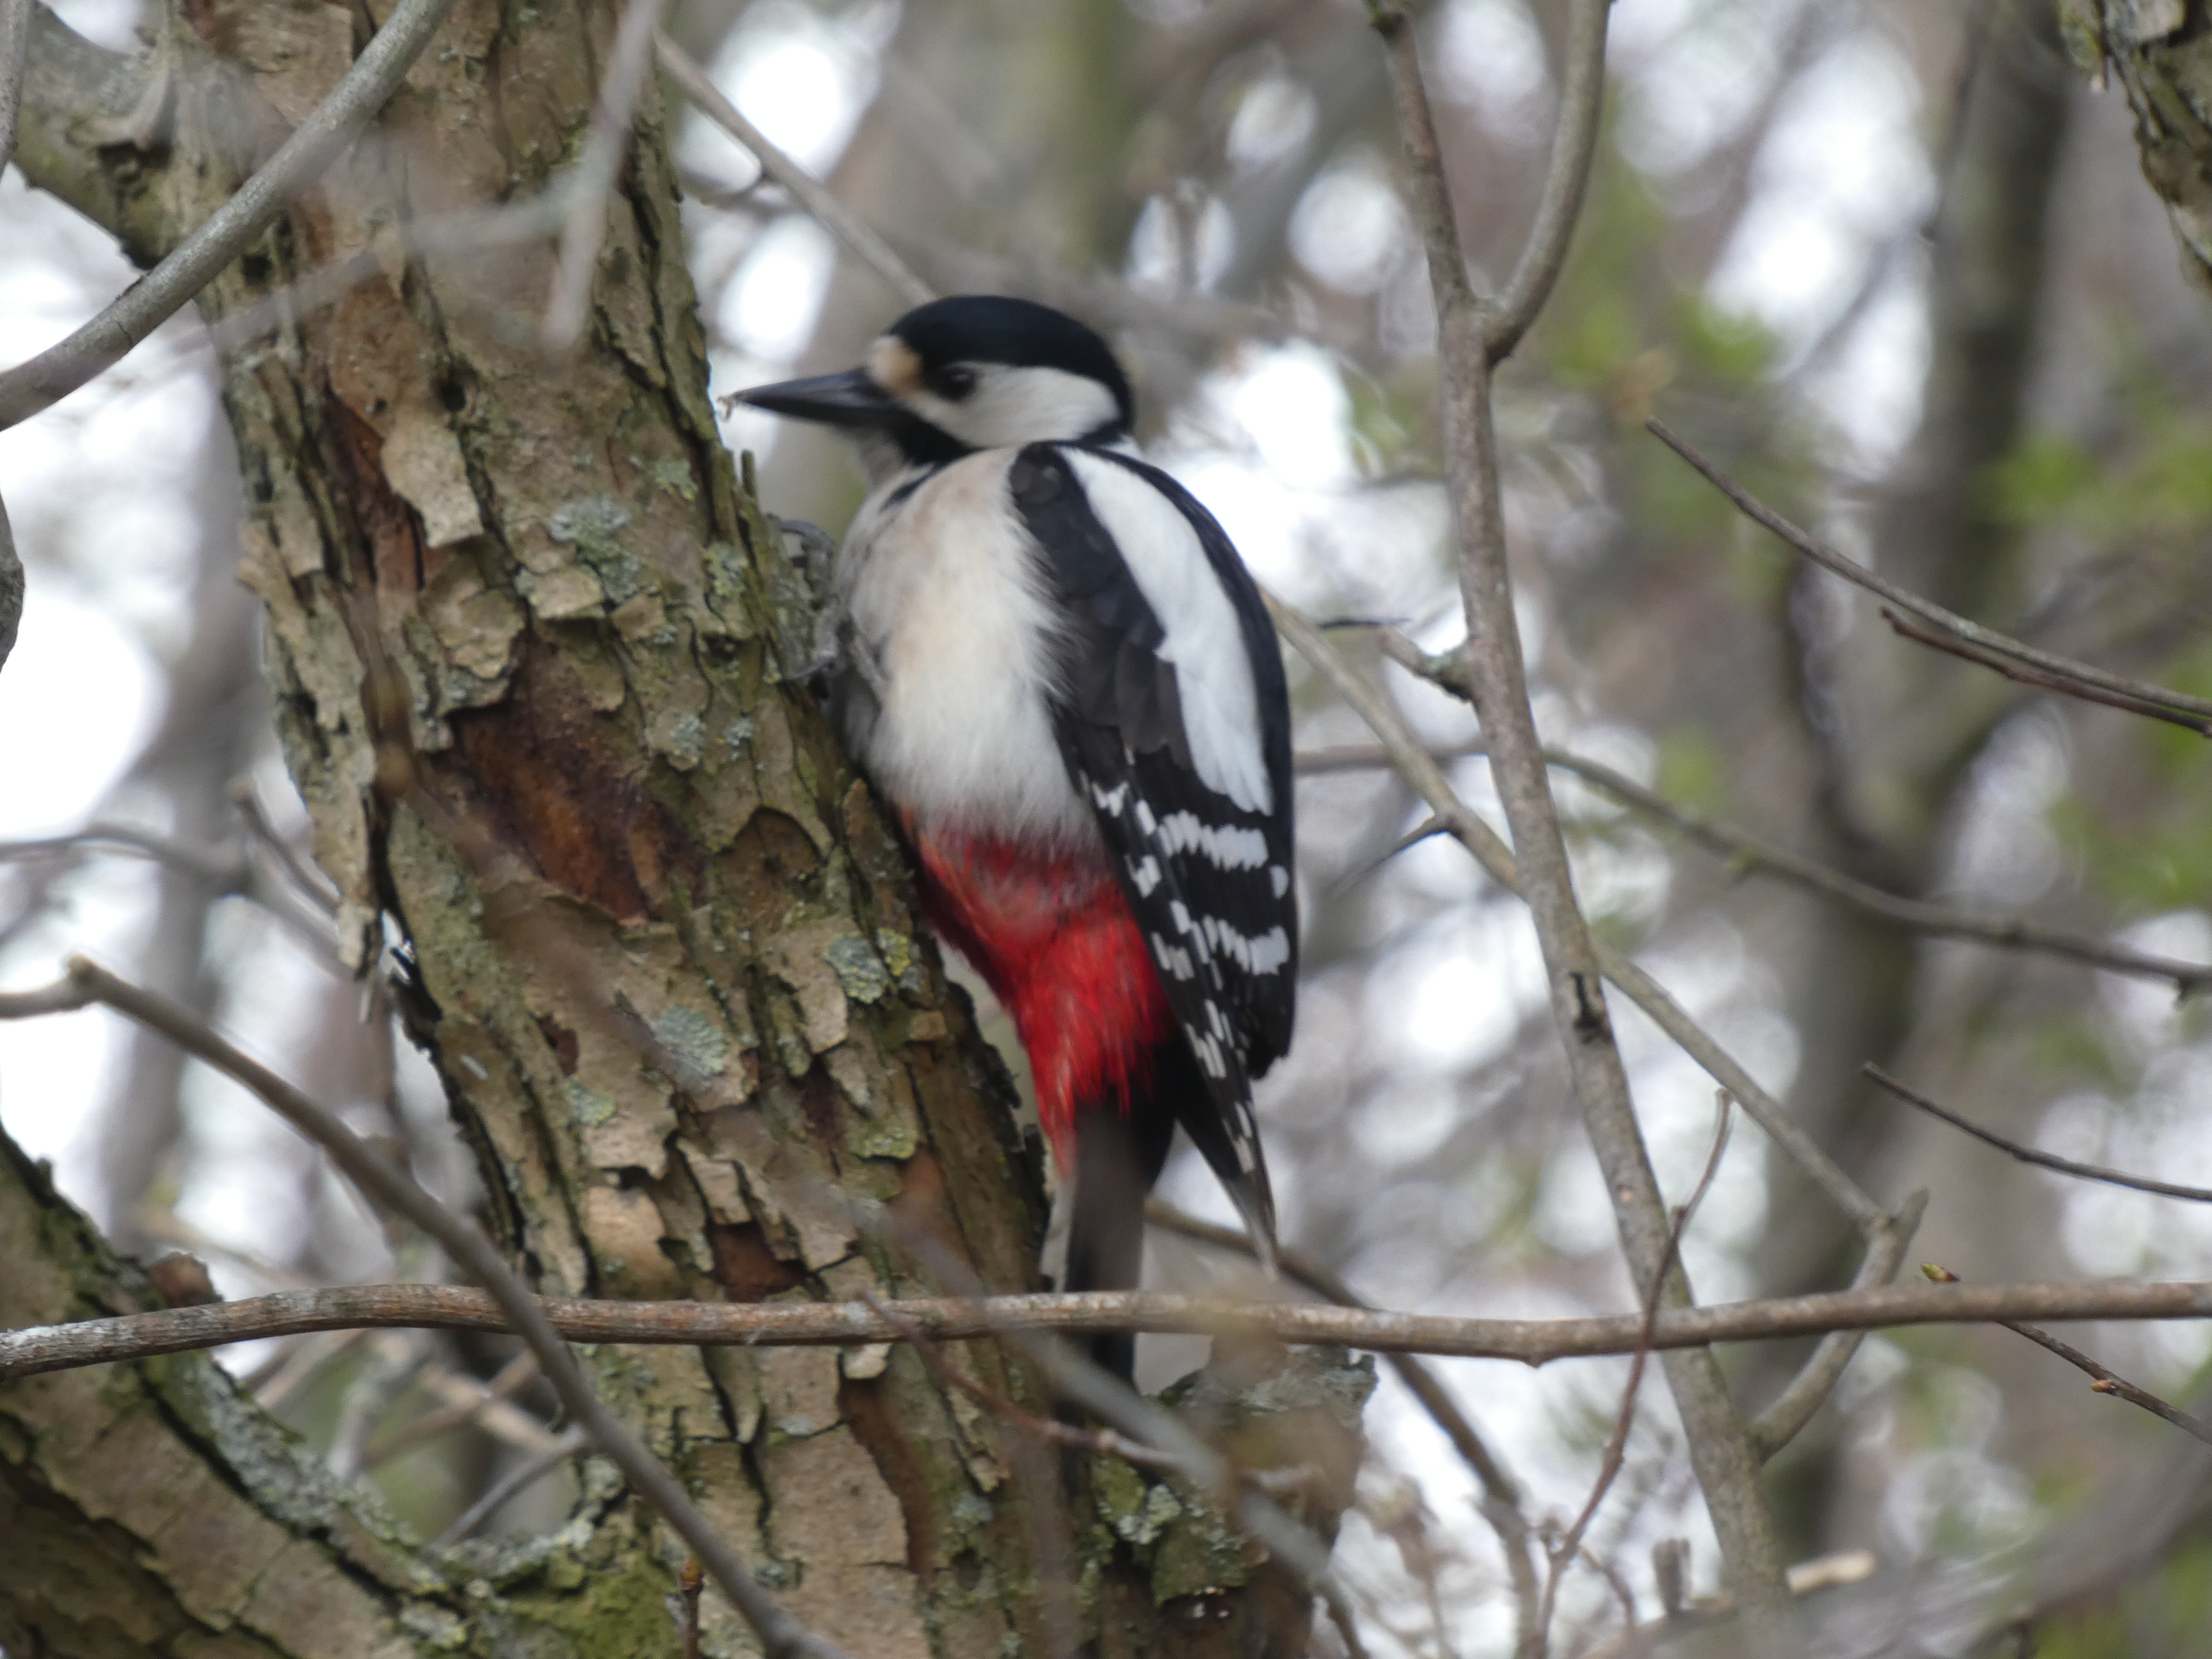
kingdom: Animalia
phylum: Chordata
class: Aves
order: Piciformes
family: Picidae
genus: Dendrocopos
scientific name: Dendrocopos major
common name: Stor flagspætte
